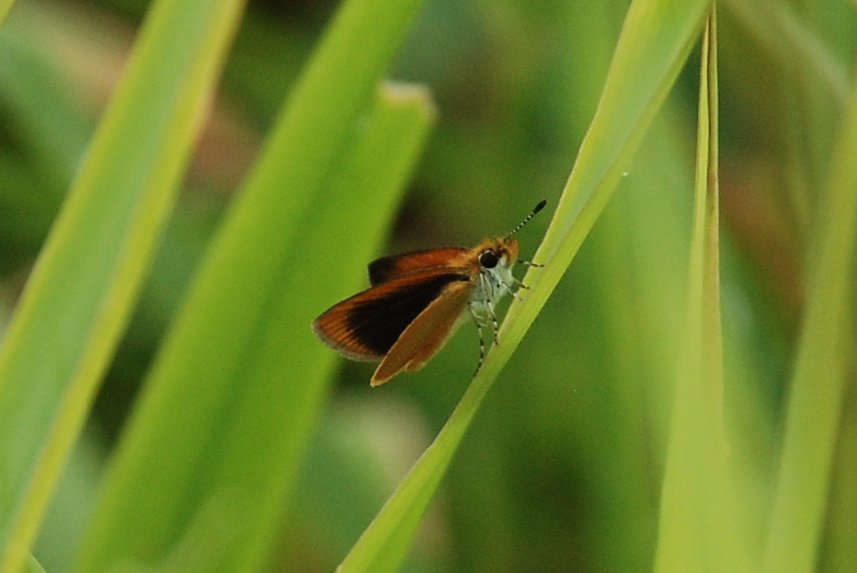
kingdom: Animalia
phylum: Arthropoda
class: Insecta
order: Lepidoptera
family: Hesperiidae
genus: Ancyloxypha
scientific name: Ancyloxypha numitor
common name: Least Skipper
